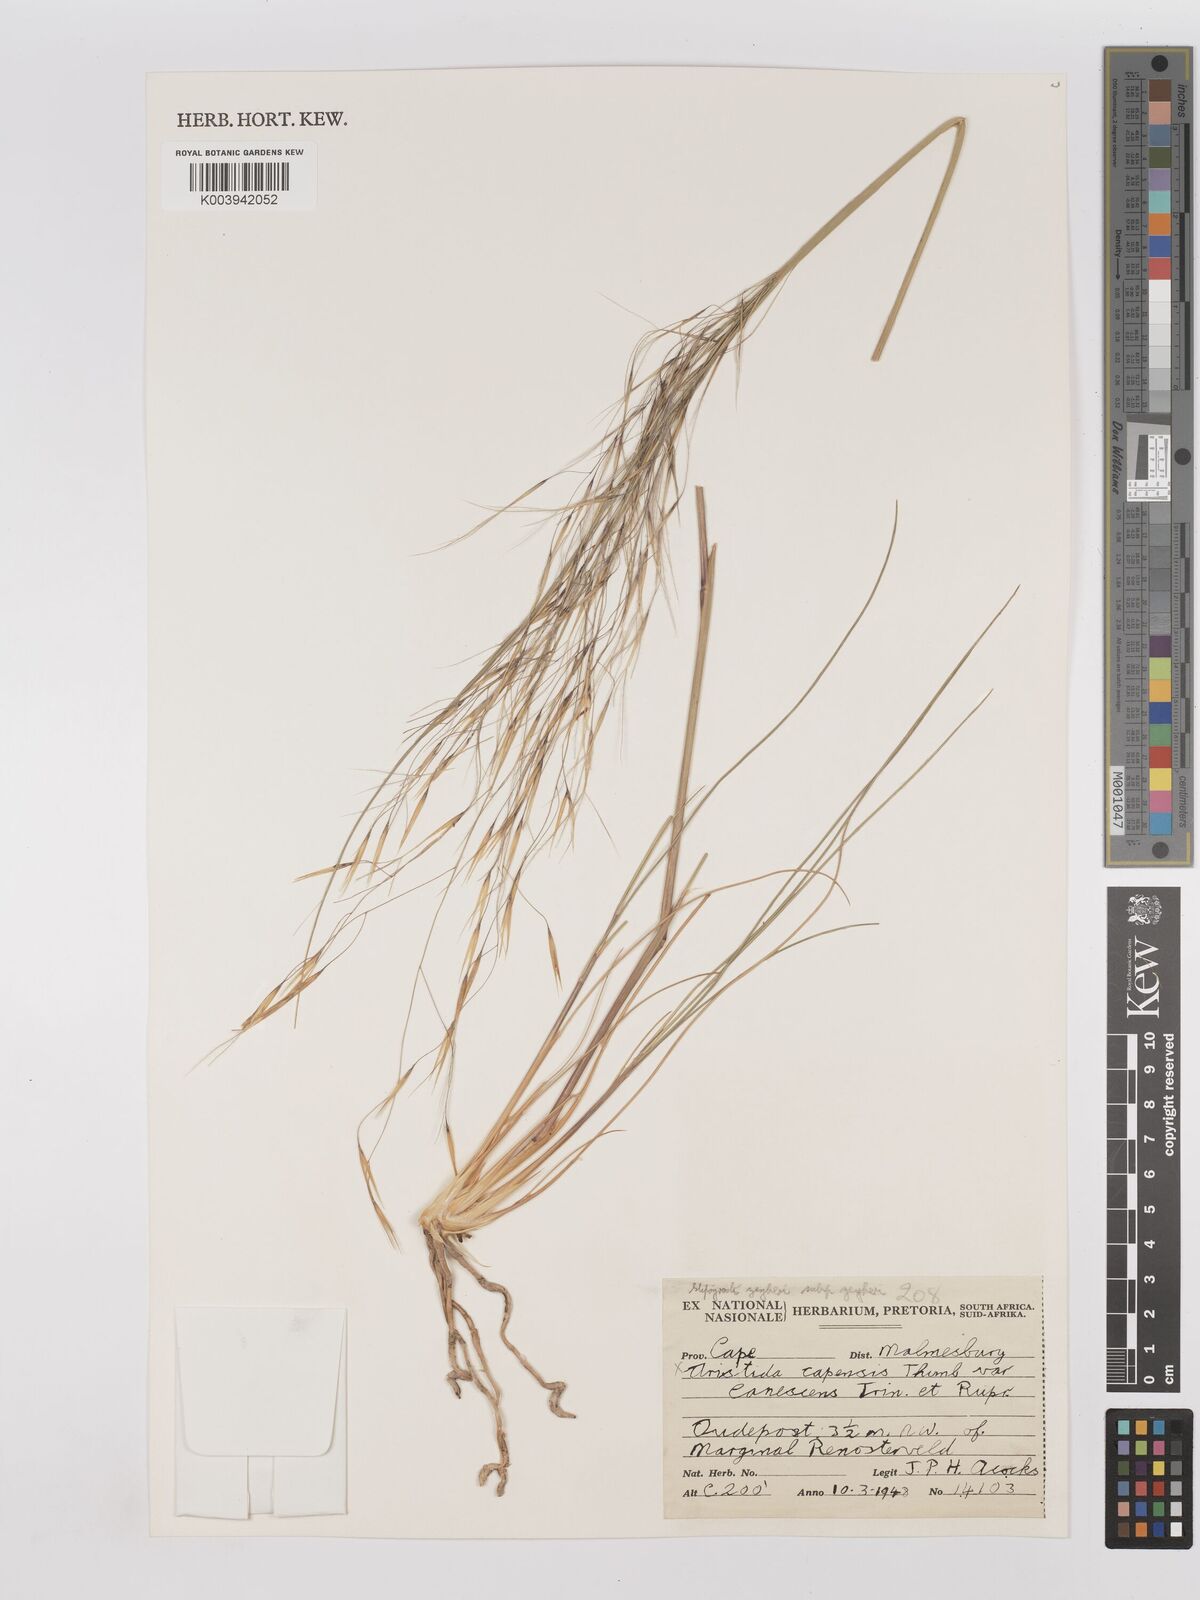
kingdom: Plantae
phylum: Tracheophyta
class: Liliopsida
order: Poales
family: Poaceae
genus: Stipagrostis
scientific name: Stipagrostis zeyheri
